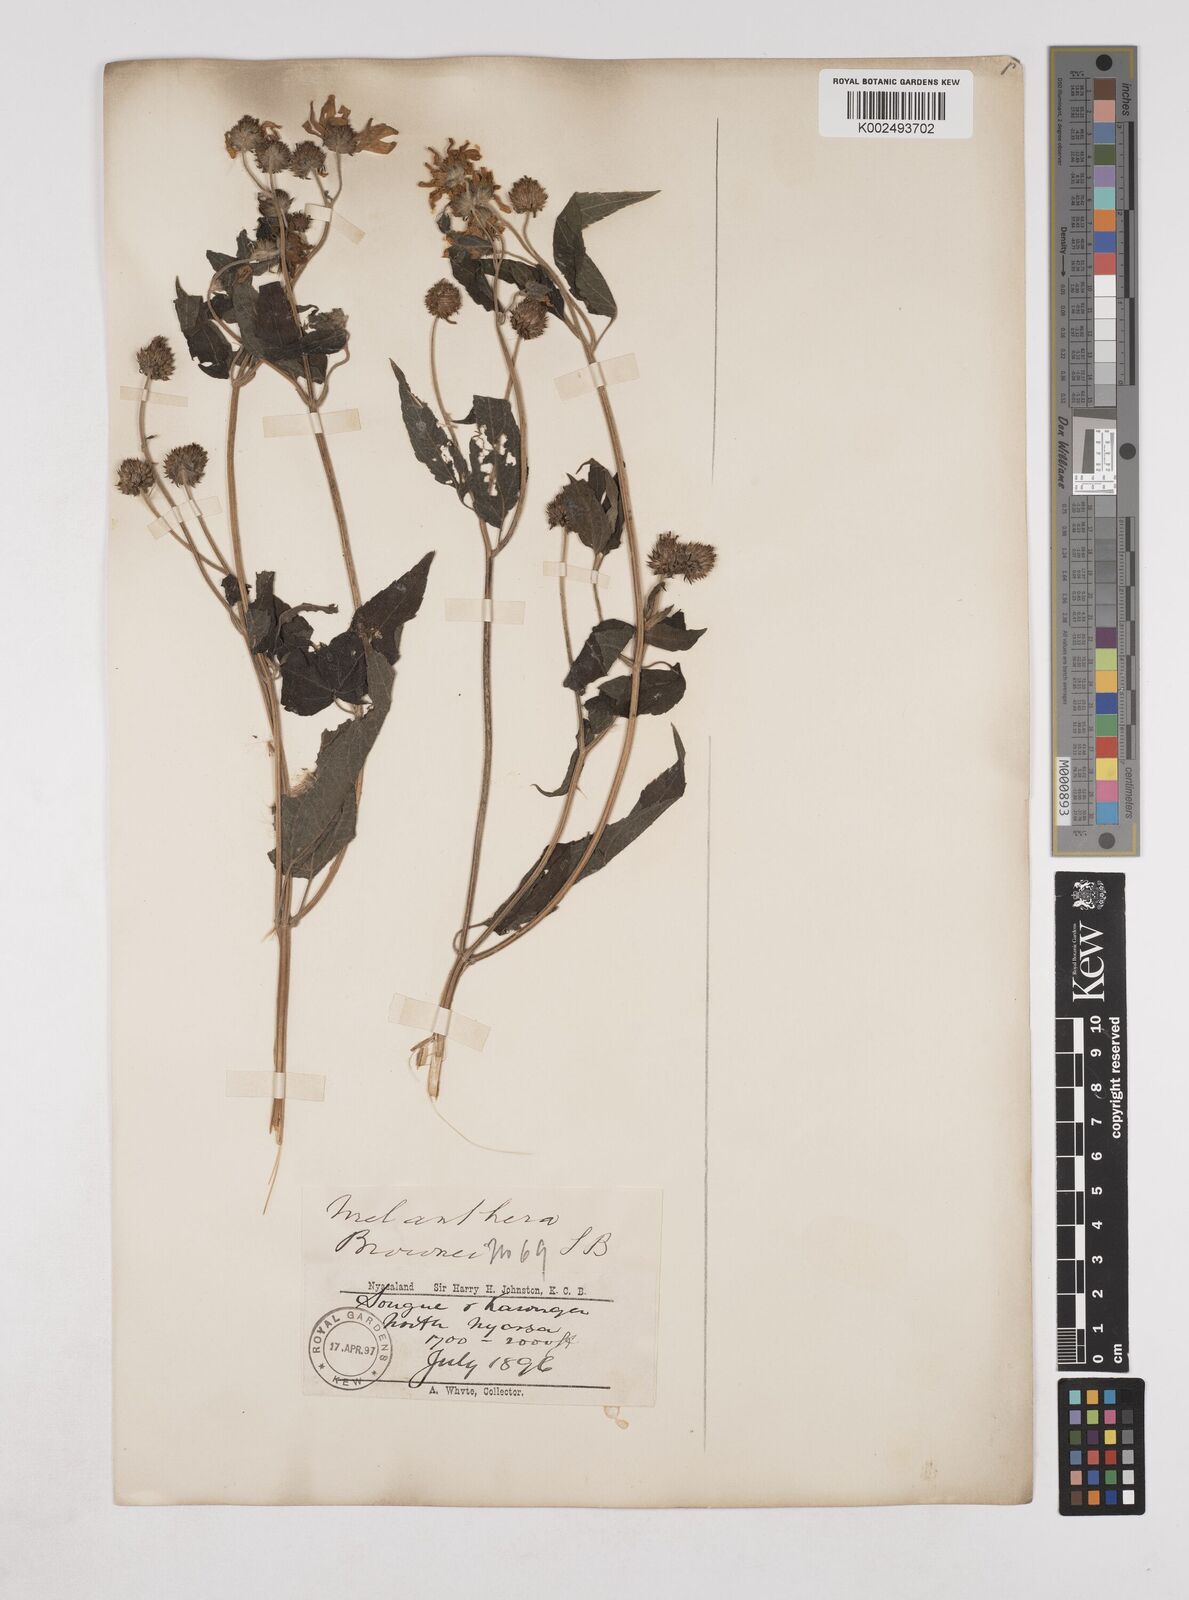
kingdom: Plantae
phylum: Tracheophyta
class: Magnoliopsida
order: Asterales
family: Asteraceae
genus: Lipotriche
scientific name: Lipotriche scandens
